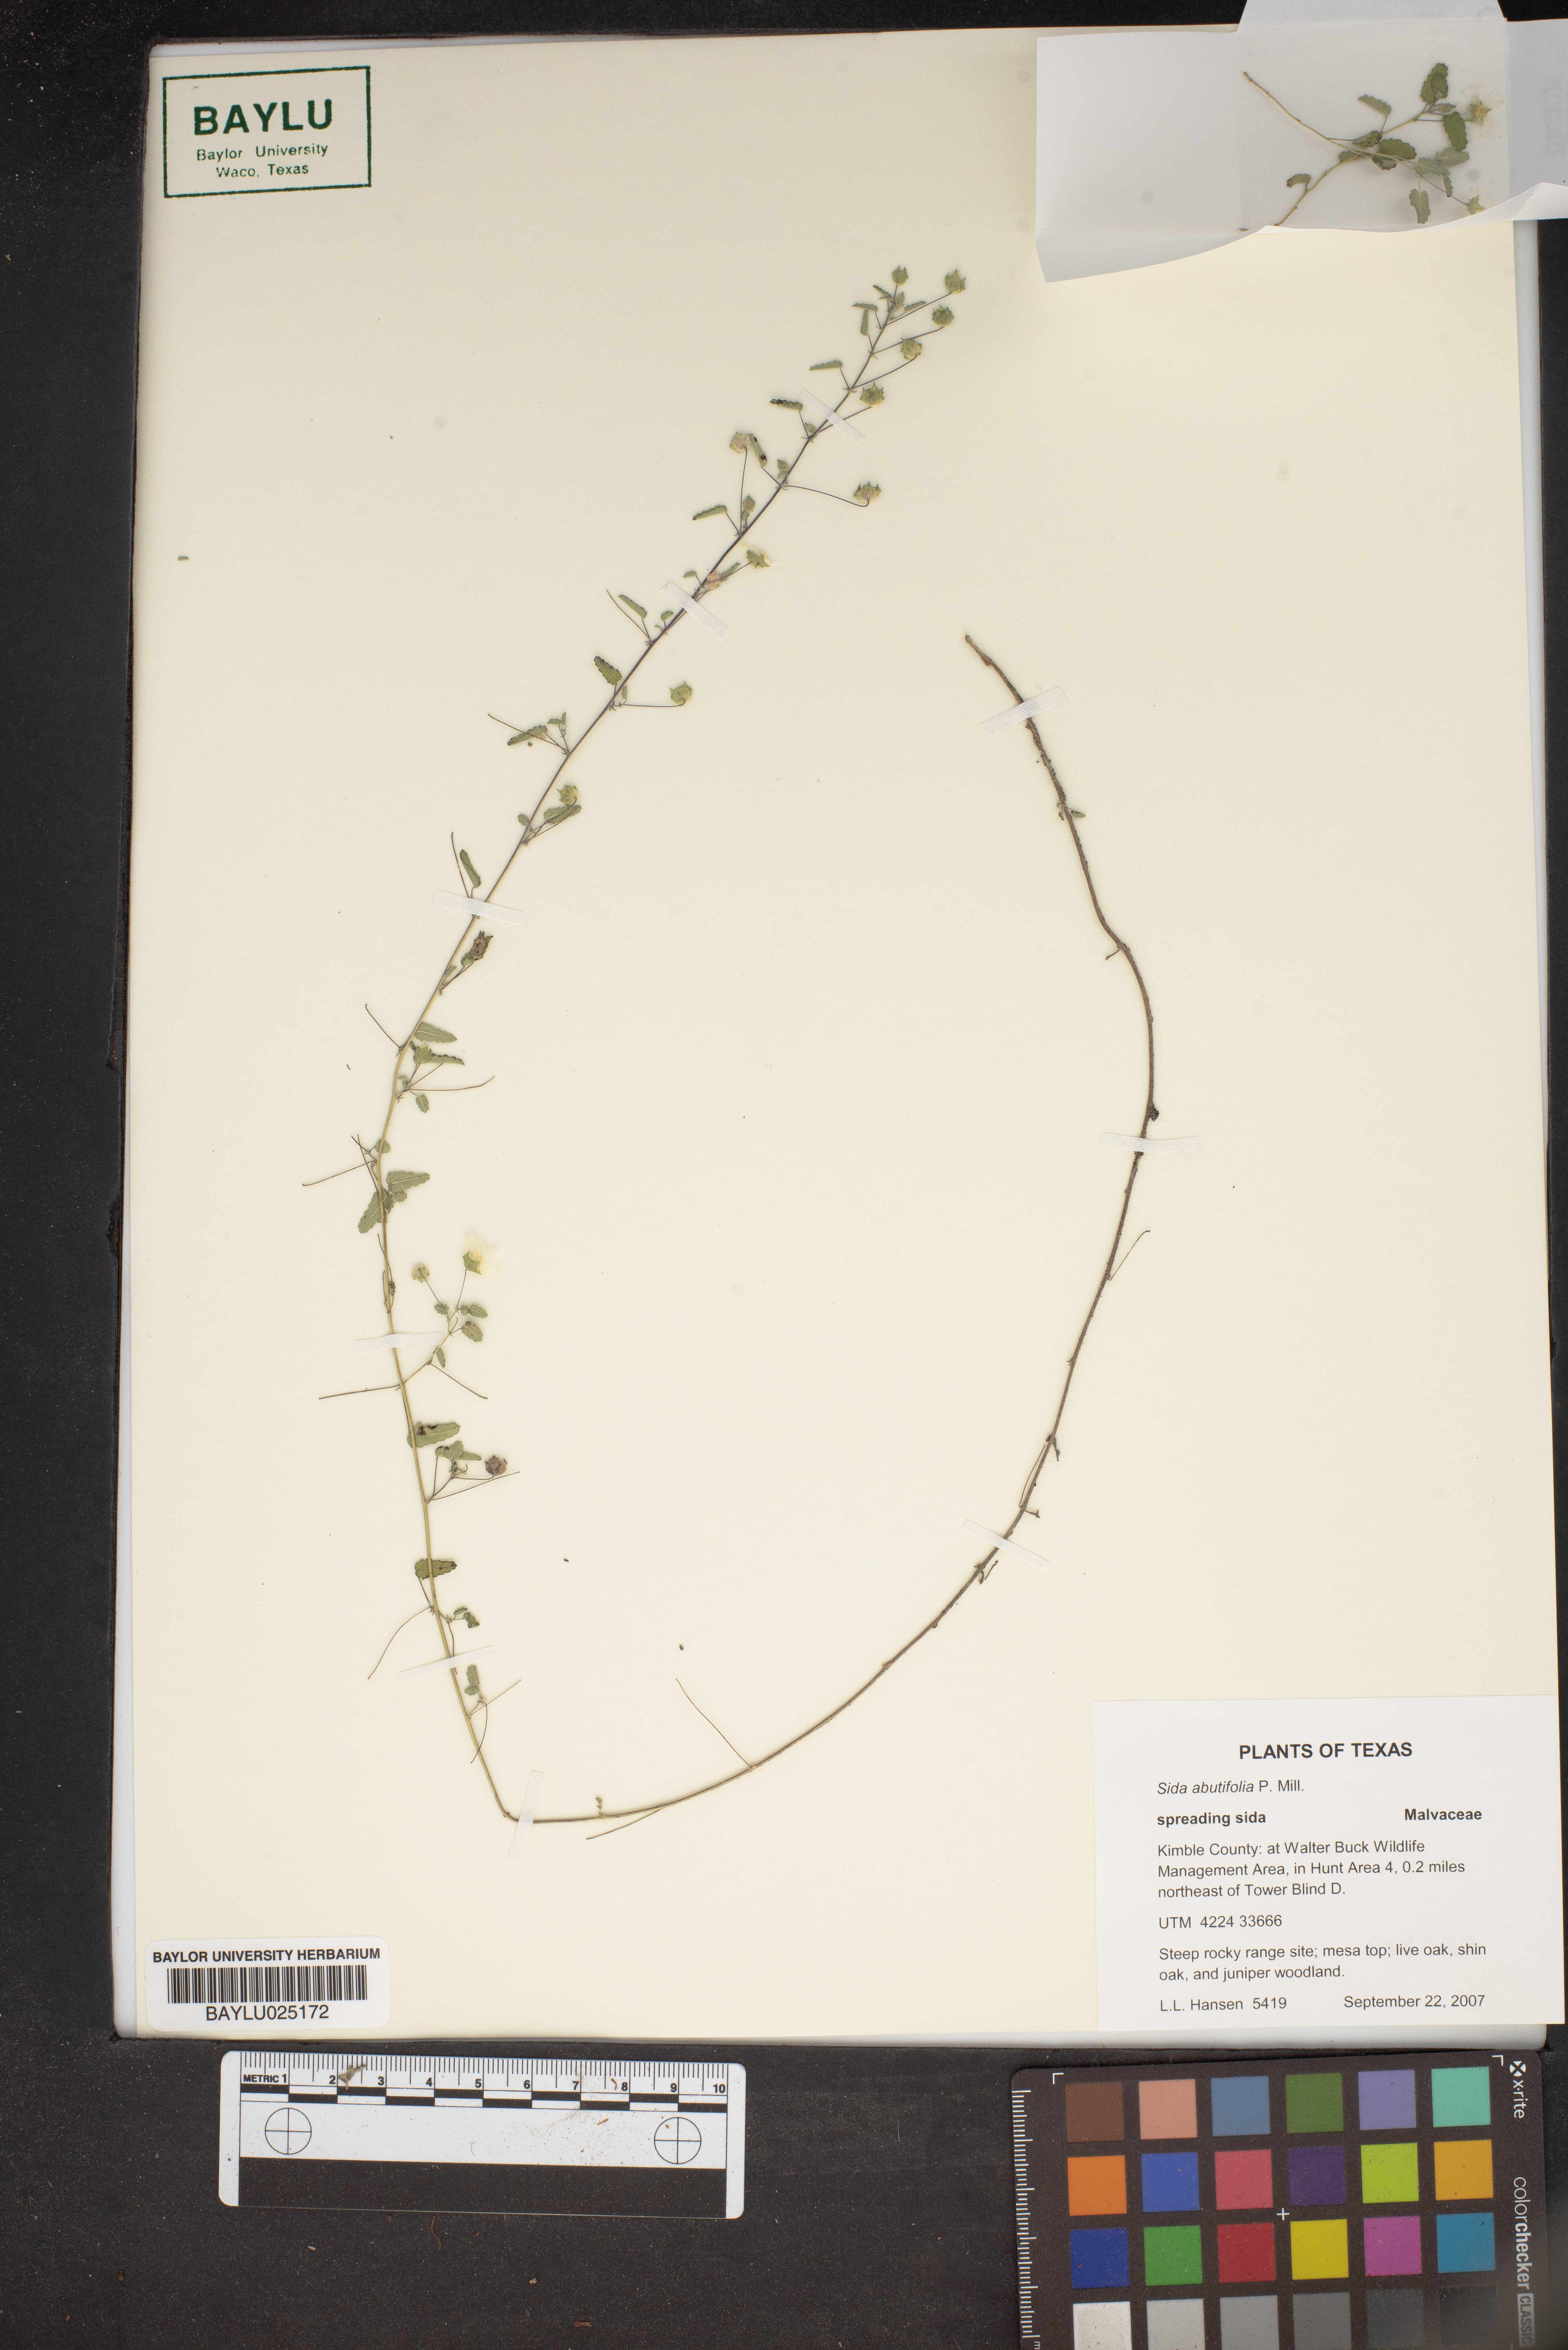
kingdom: Plantae
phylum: Tracheophyta
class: Magnoliopsida
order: Malvales
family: Malvaceae
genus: Sida
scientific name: Sida abutifolia
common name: Spreading fantails
